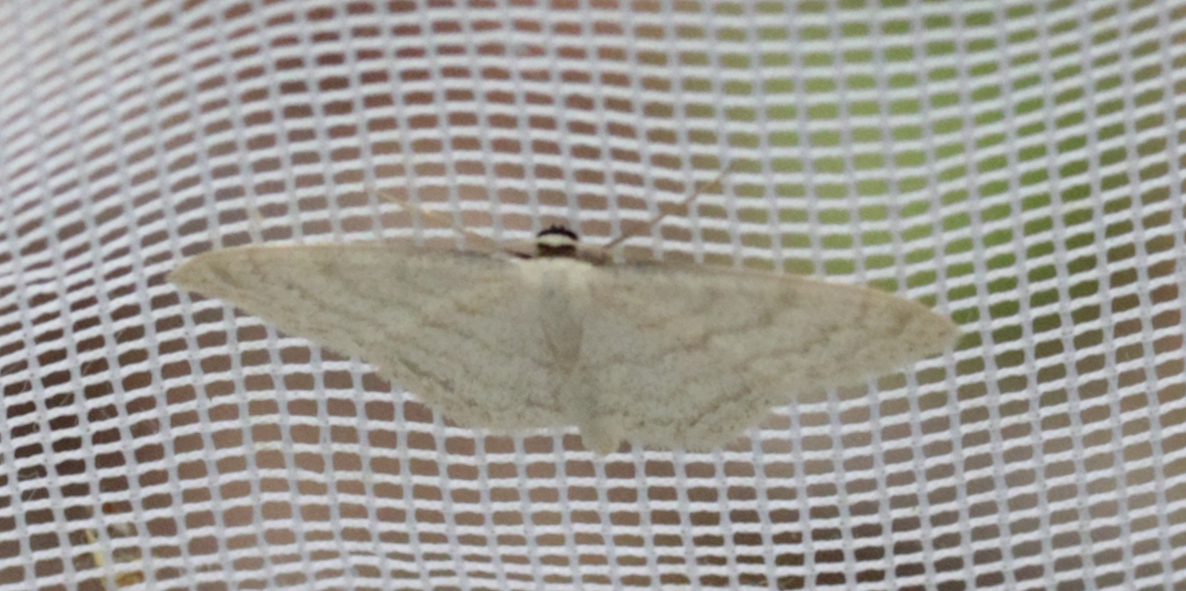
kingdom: Animalia
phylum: Arthropoda
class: Insecta
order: Lepidoptera
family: Geometridae
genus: Scopula
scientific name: Scopula floslactata
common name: Cream wave
